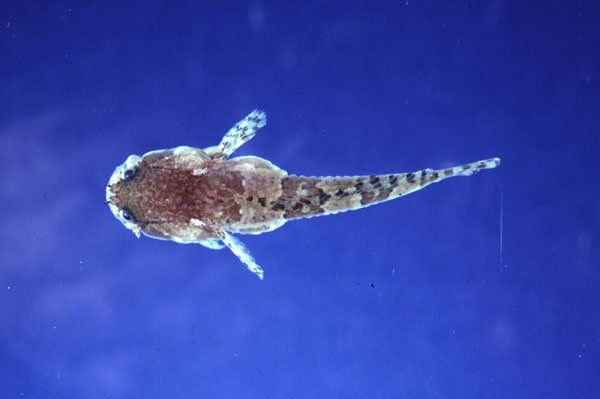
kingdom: Animalia
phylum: Chordata
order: Batrachoidiformes
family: Batrachoididae
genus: Batrichthys
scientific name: Batrichthys apiatus
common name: Snakehead toadfish
